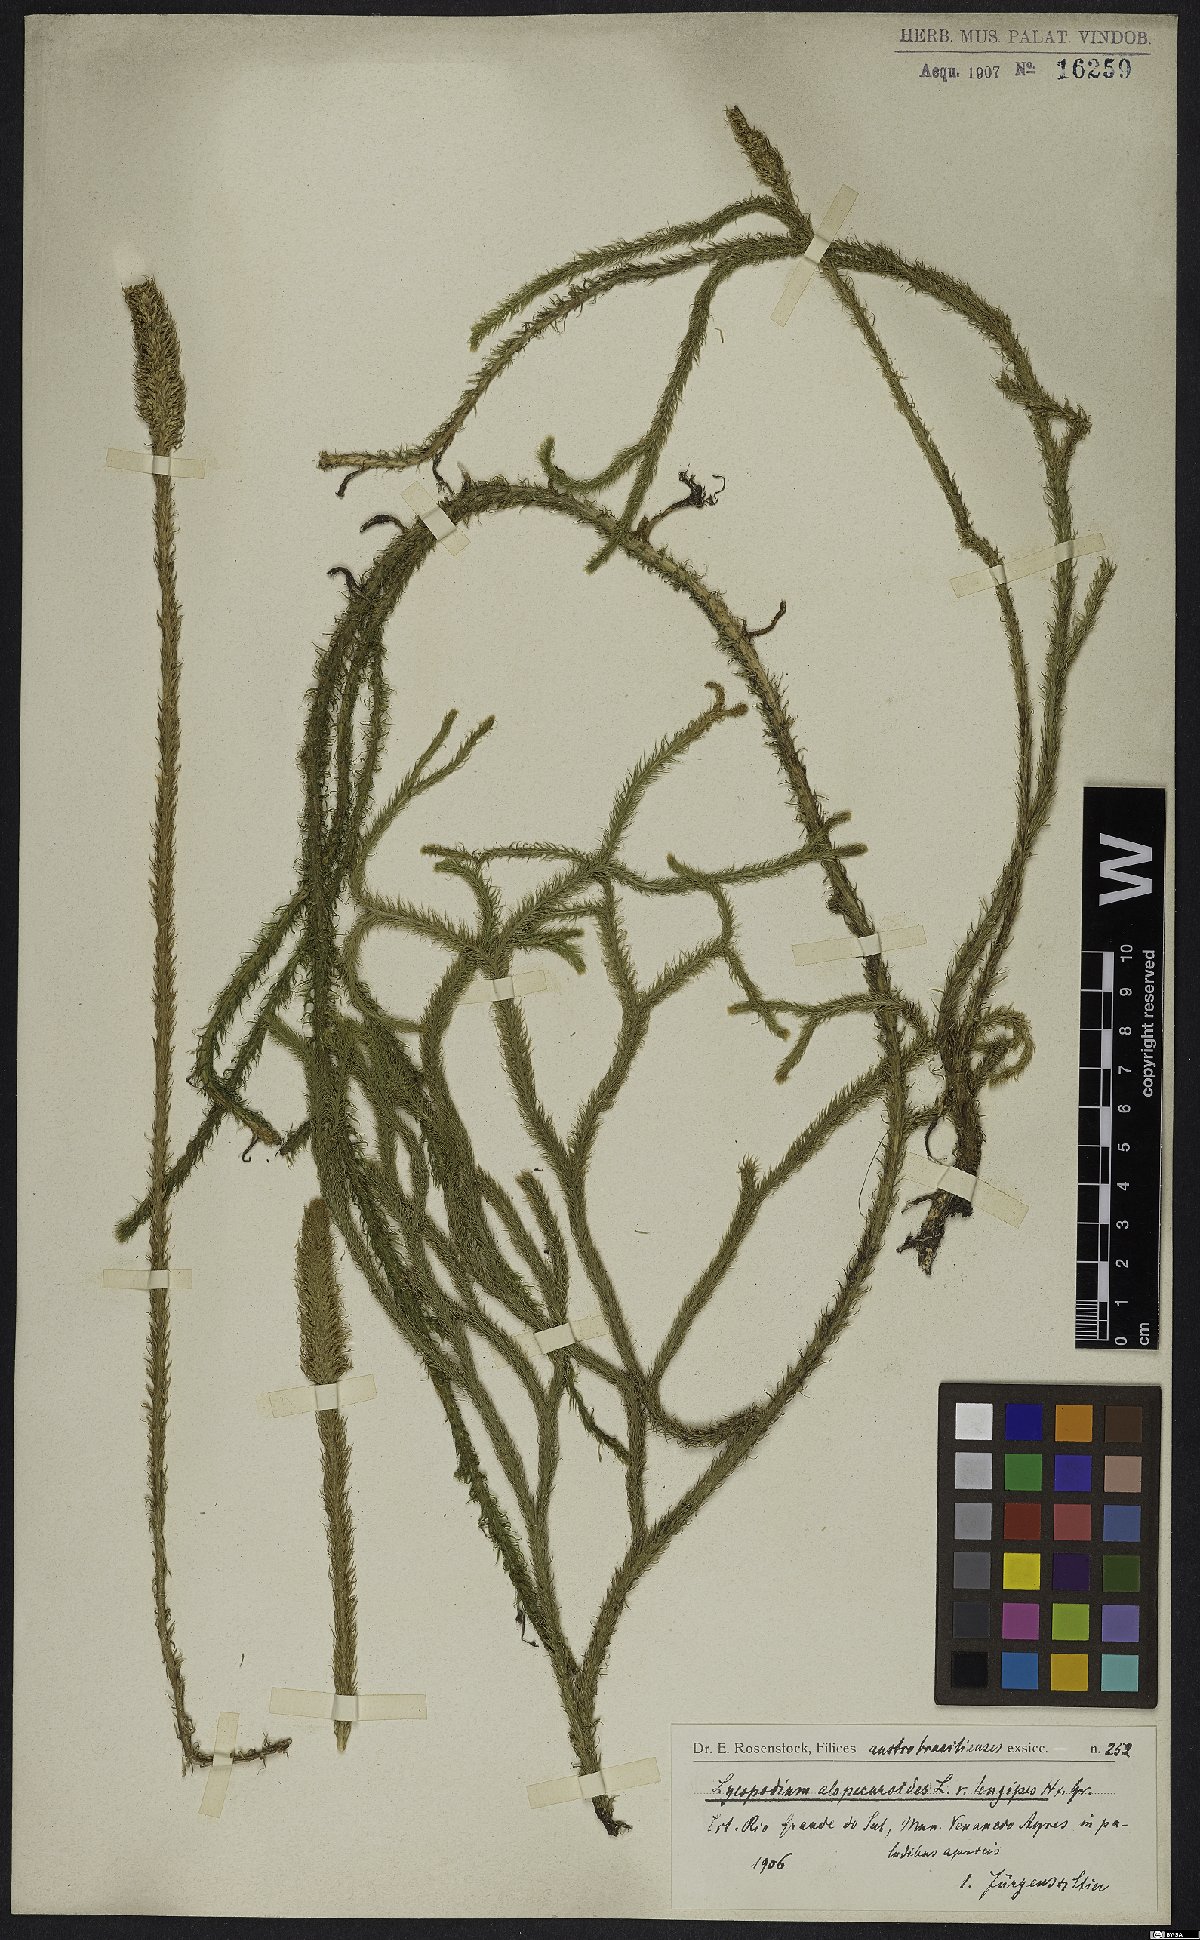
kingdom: Plantae
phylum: Tracheophyta
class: Lycopodiopsida
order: Lycopodiales
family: Lycopodiaceae
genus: Lycopodiella
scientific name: Lycopodiella alopecuroides
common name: Foxtail clubmoss
